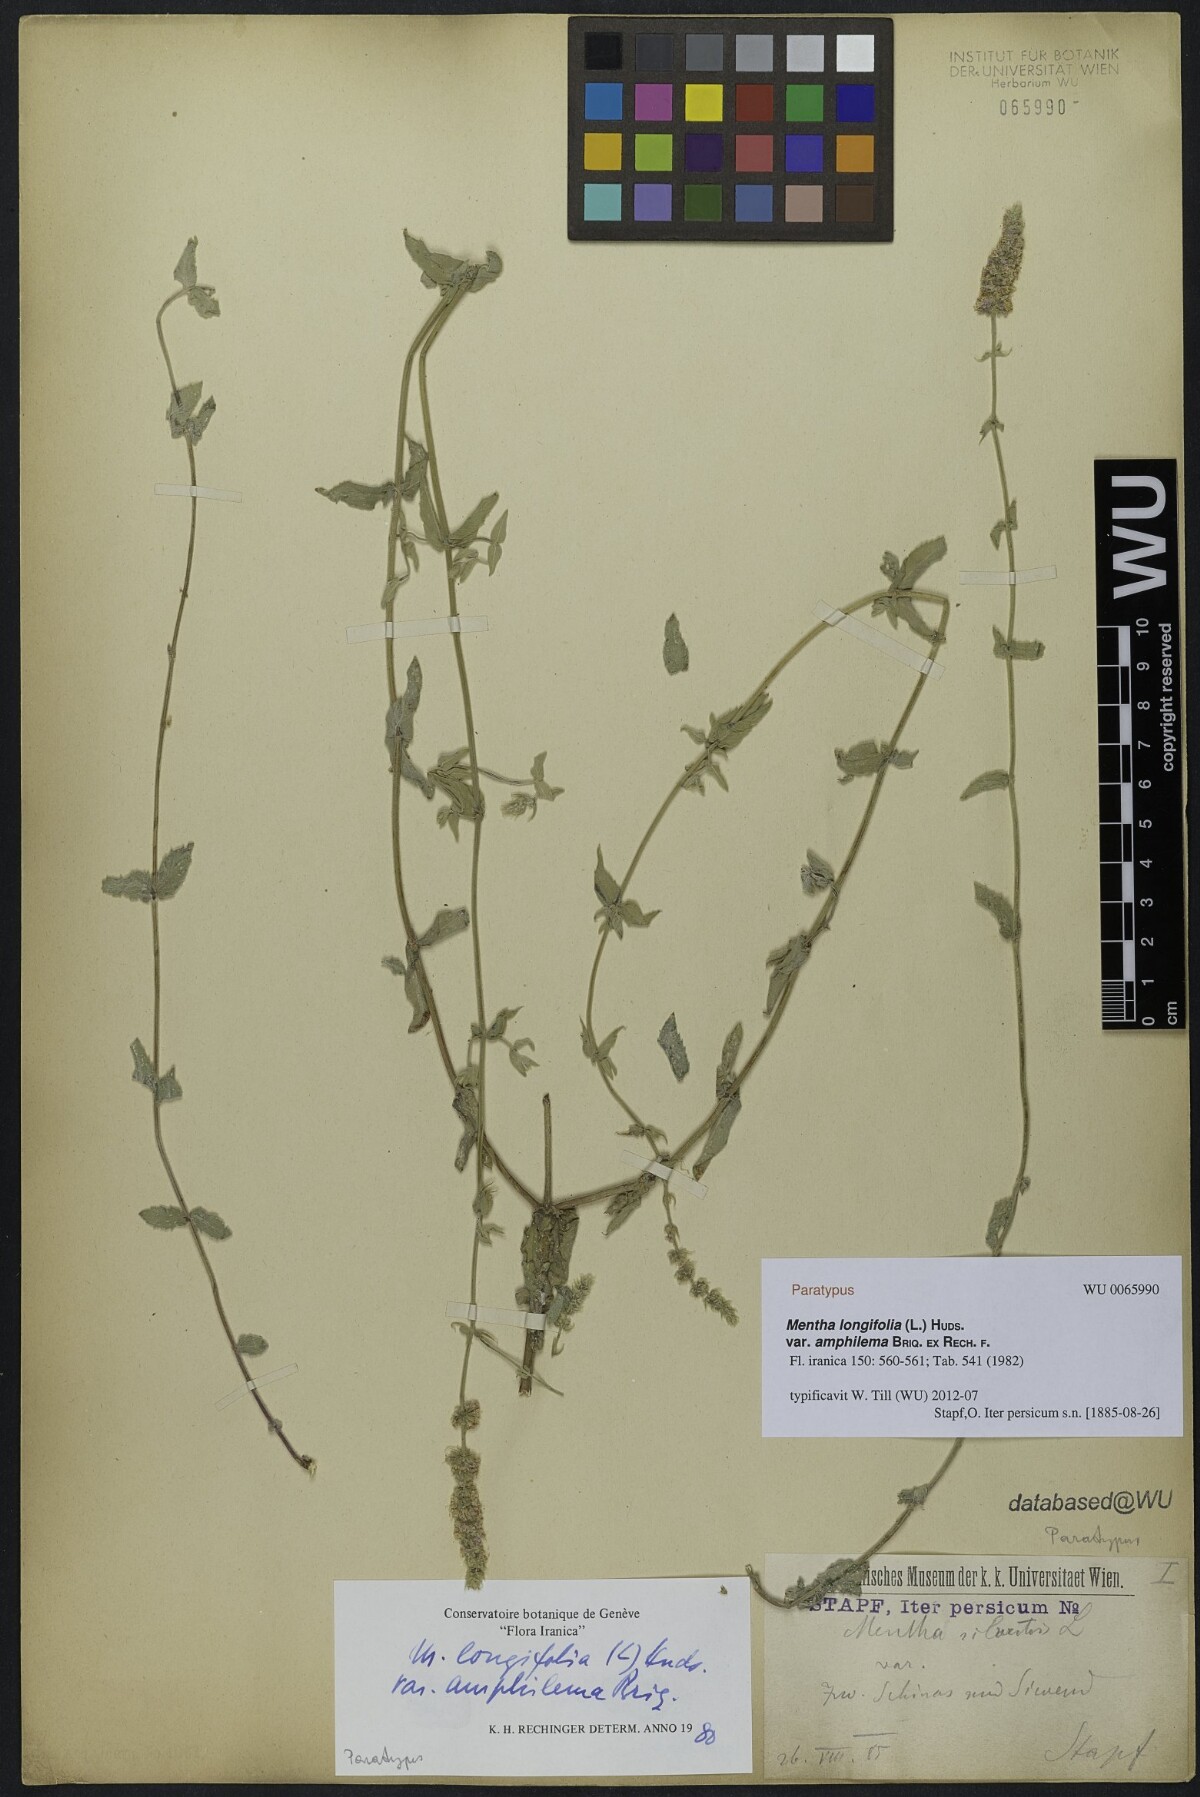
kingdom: Plantae
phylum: Tracheophyta
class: Magnoliopsida
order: Lamiales
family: Lamiaceae
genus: Mentha
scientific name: Mentha longifolia
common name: Horse mint
